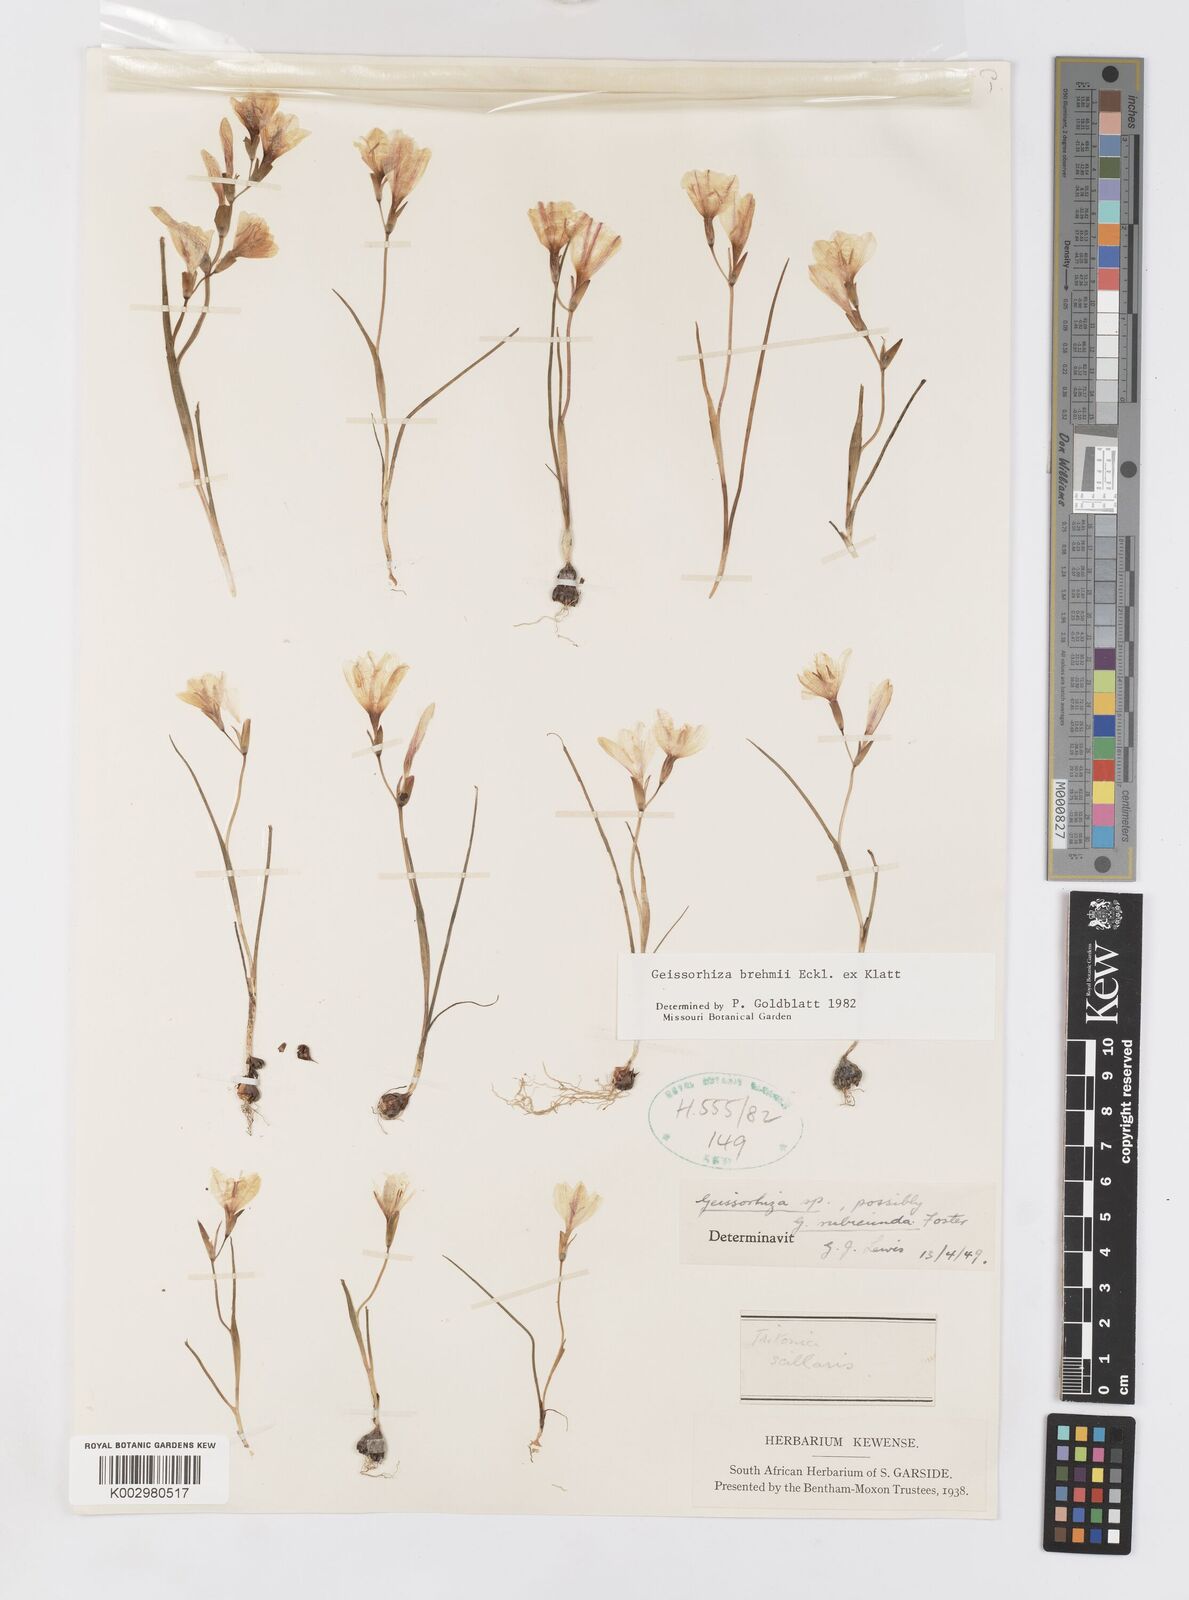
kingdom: Plantae
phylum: Tracheophyta
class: Liliopsida
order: Asparagales
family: Iridaceae
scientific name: Iridaceae
